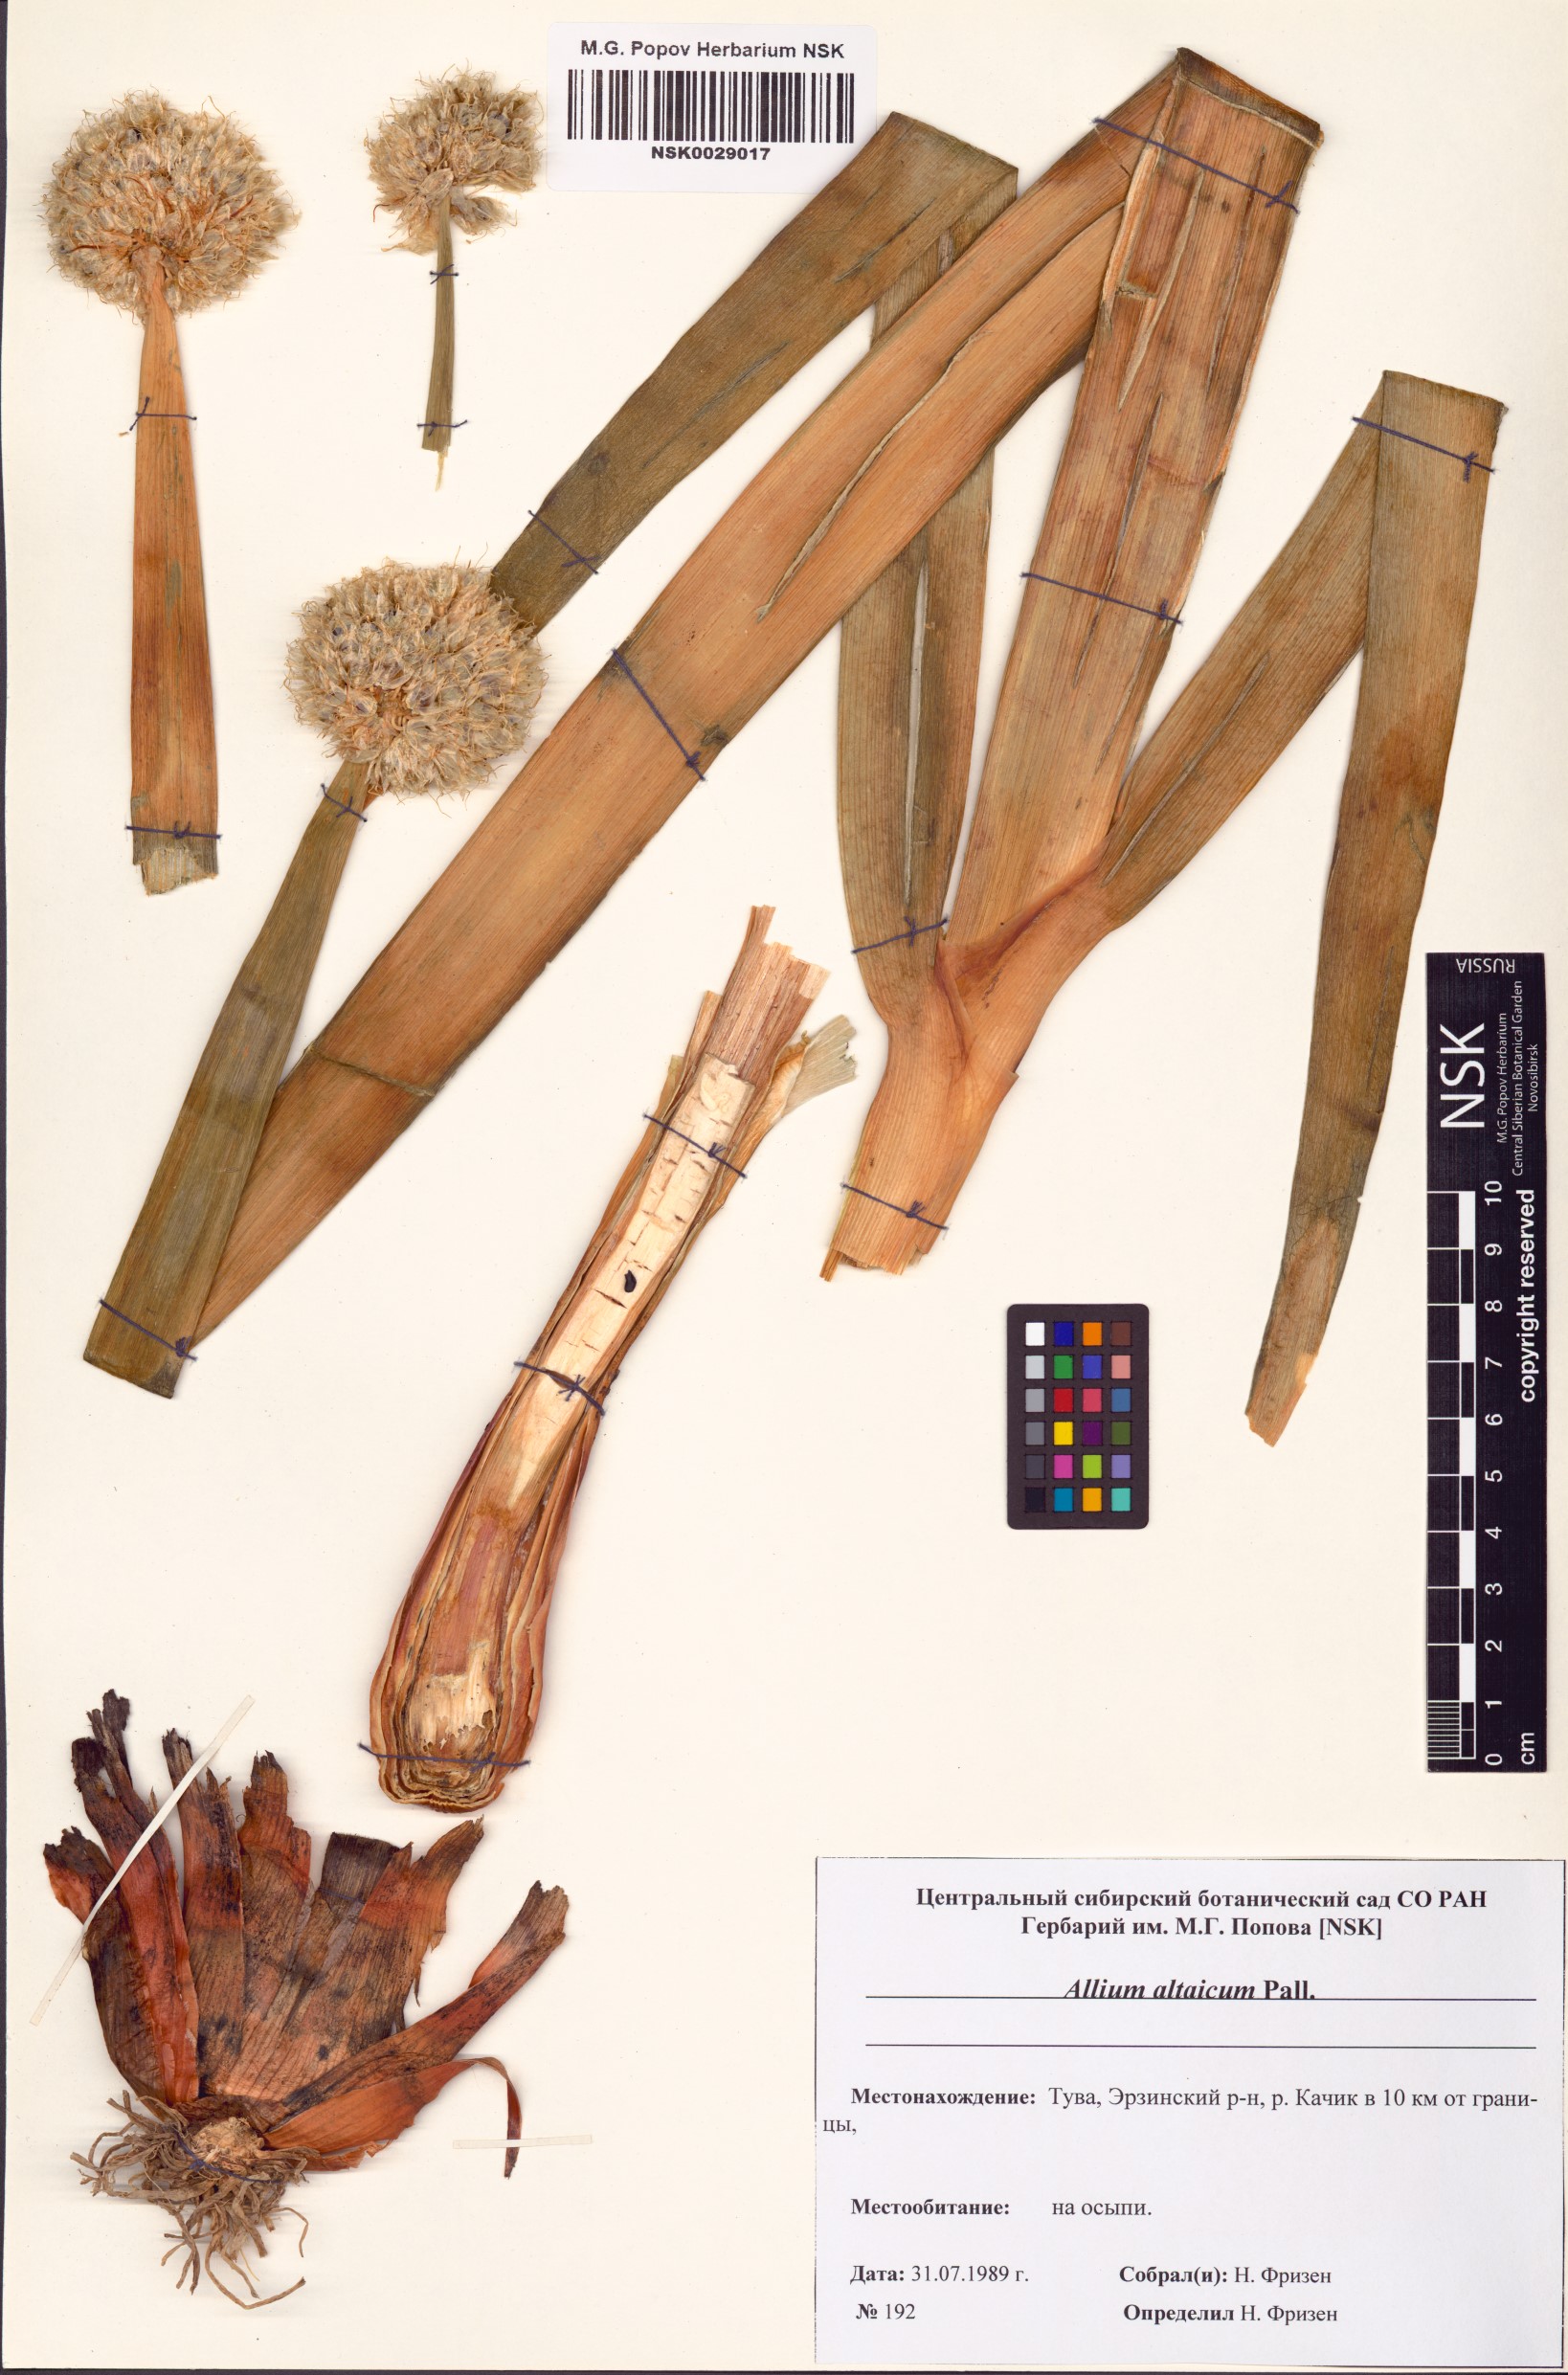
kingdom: Plantae
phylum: Tracheophyta
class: Liliopsida
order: Asparagales
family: Amaryllidaceae
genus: Allium
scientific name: Allium altaicum
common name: Altai onion
